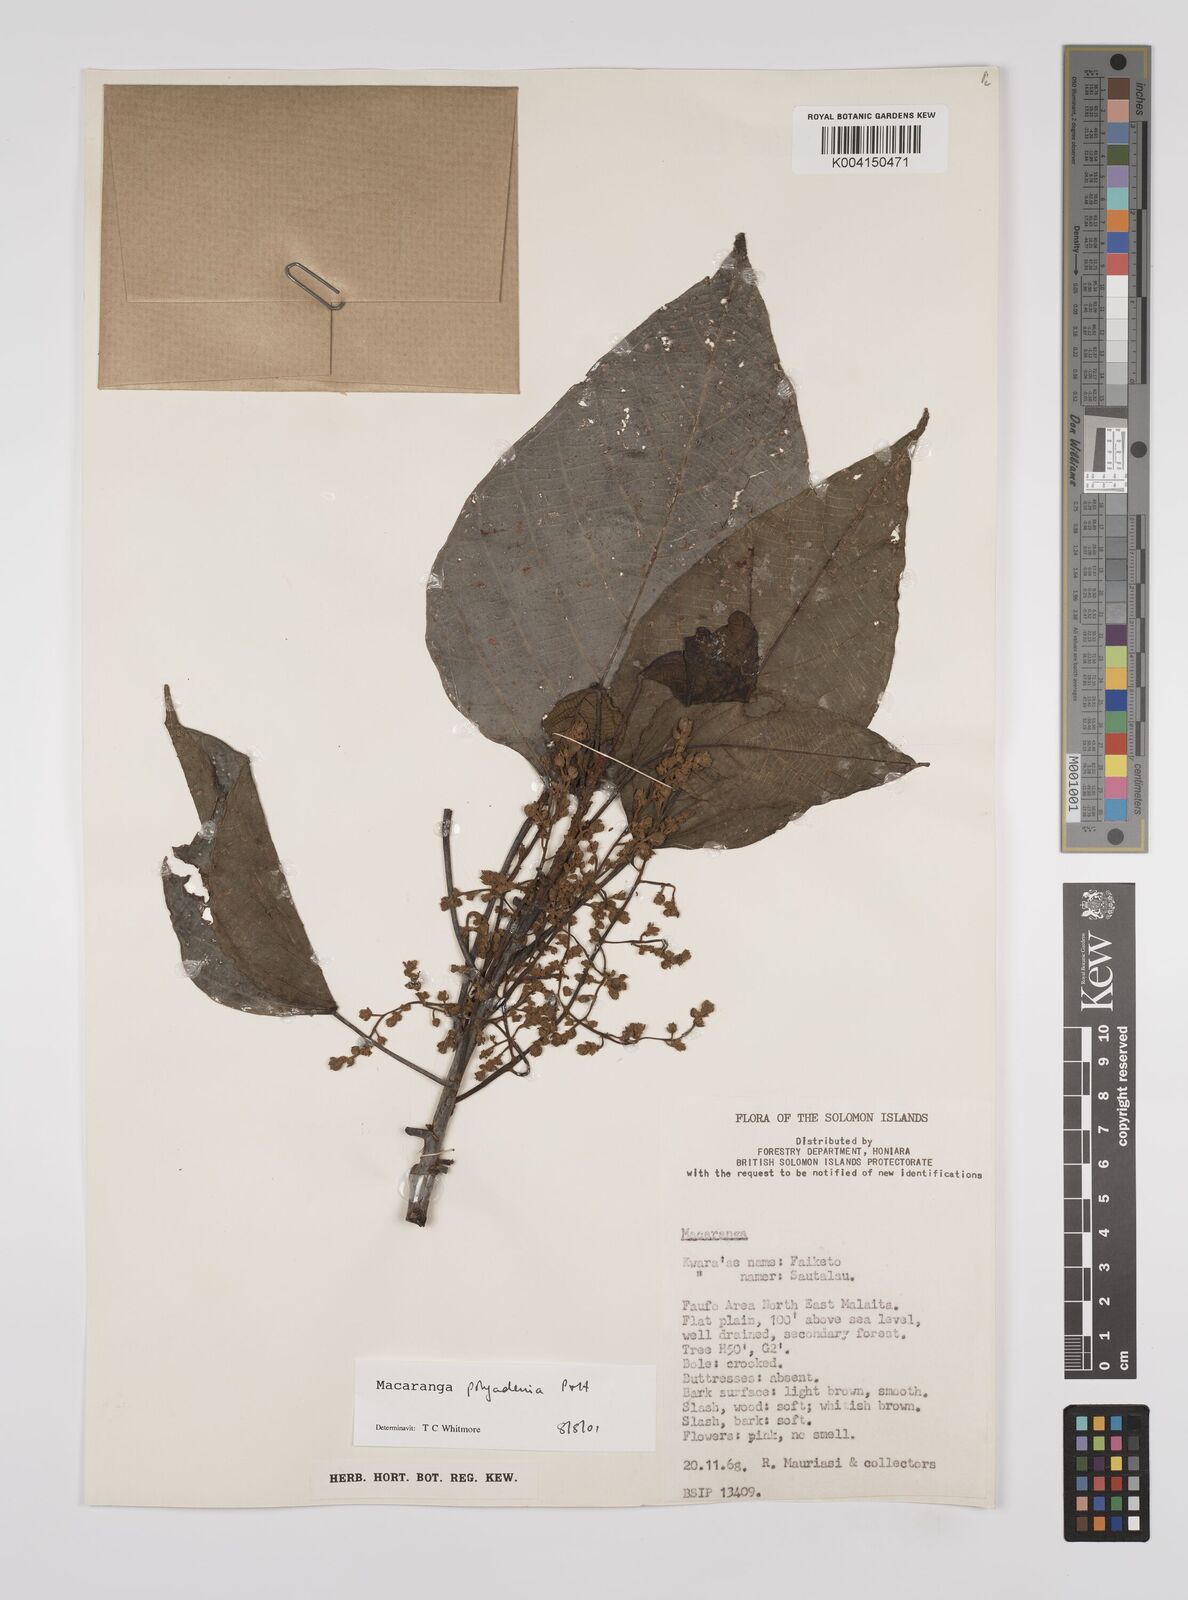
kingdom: Plantae
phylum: Tracheophyta
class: Magnoliopsida
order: Malpighiales
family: Euphorbiaceae
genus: Macaranga
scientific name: Macaranga polyadenia
